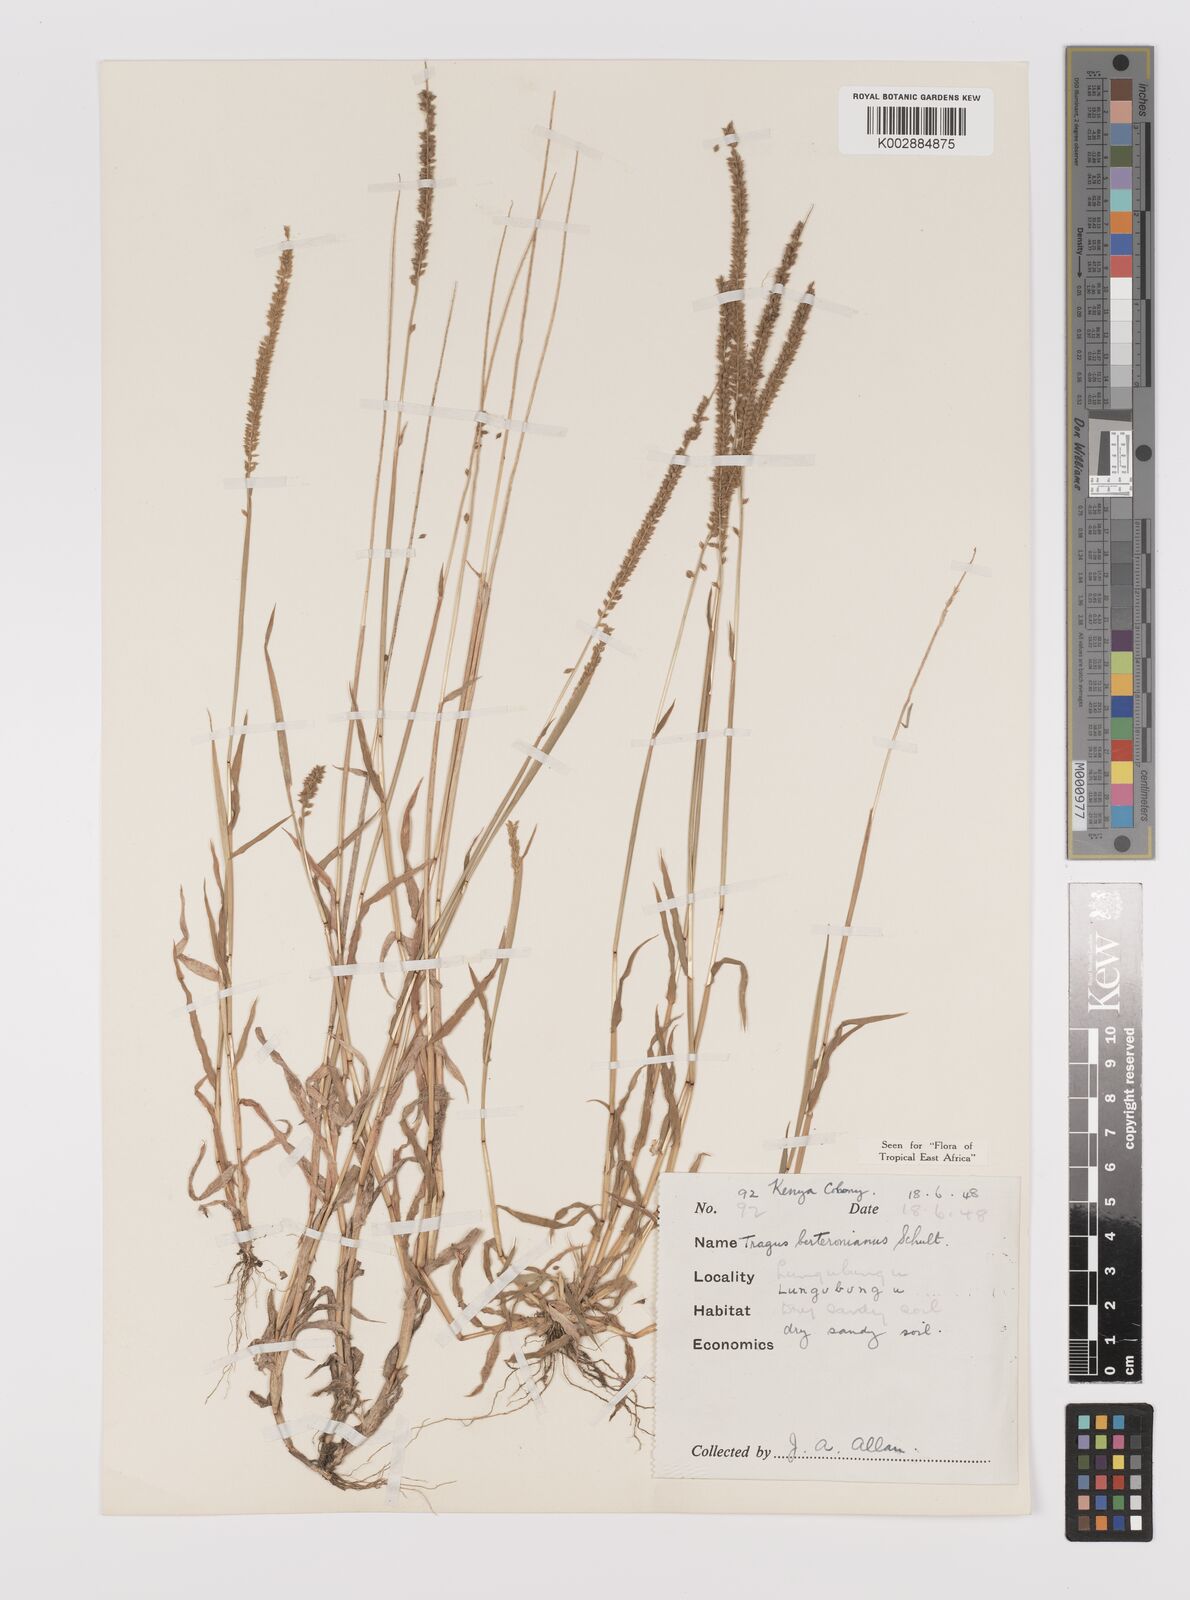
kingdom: Plantae
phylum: Tracheophyta
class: Liliopsida
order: Poales
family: Poaceae
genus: Tragus
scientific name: Tragus berteronianus
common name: African bur-grass
